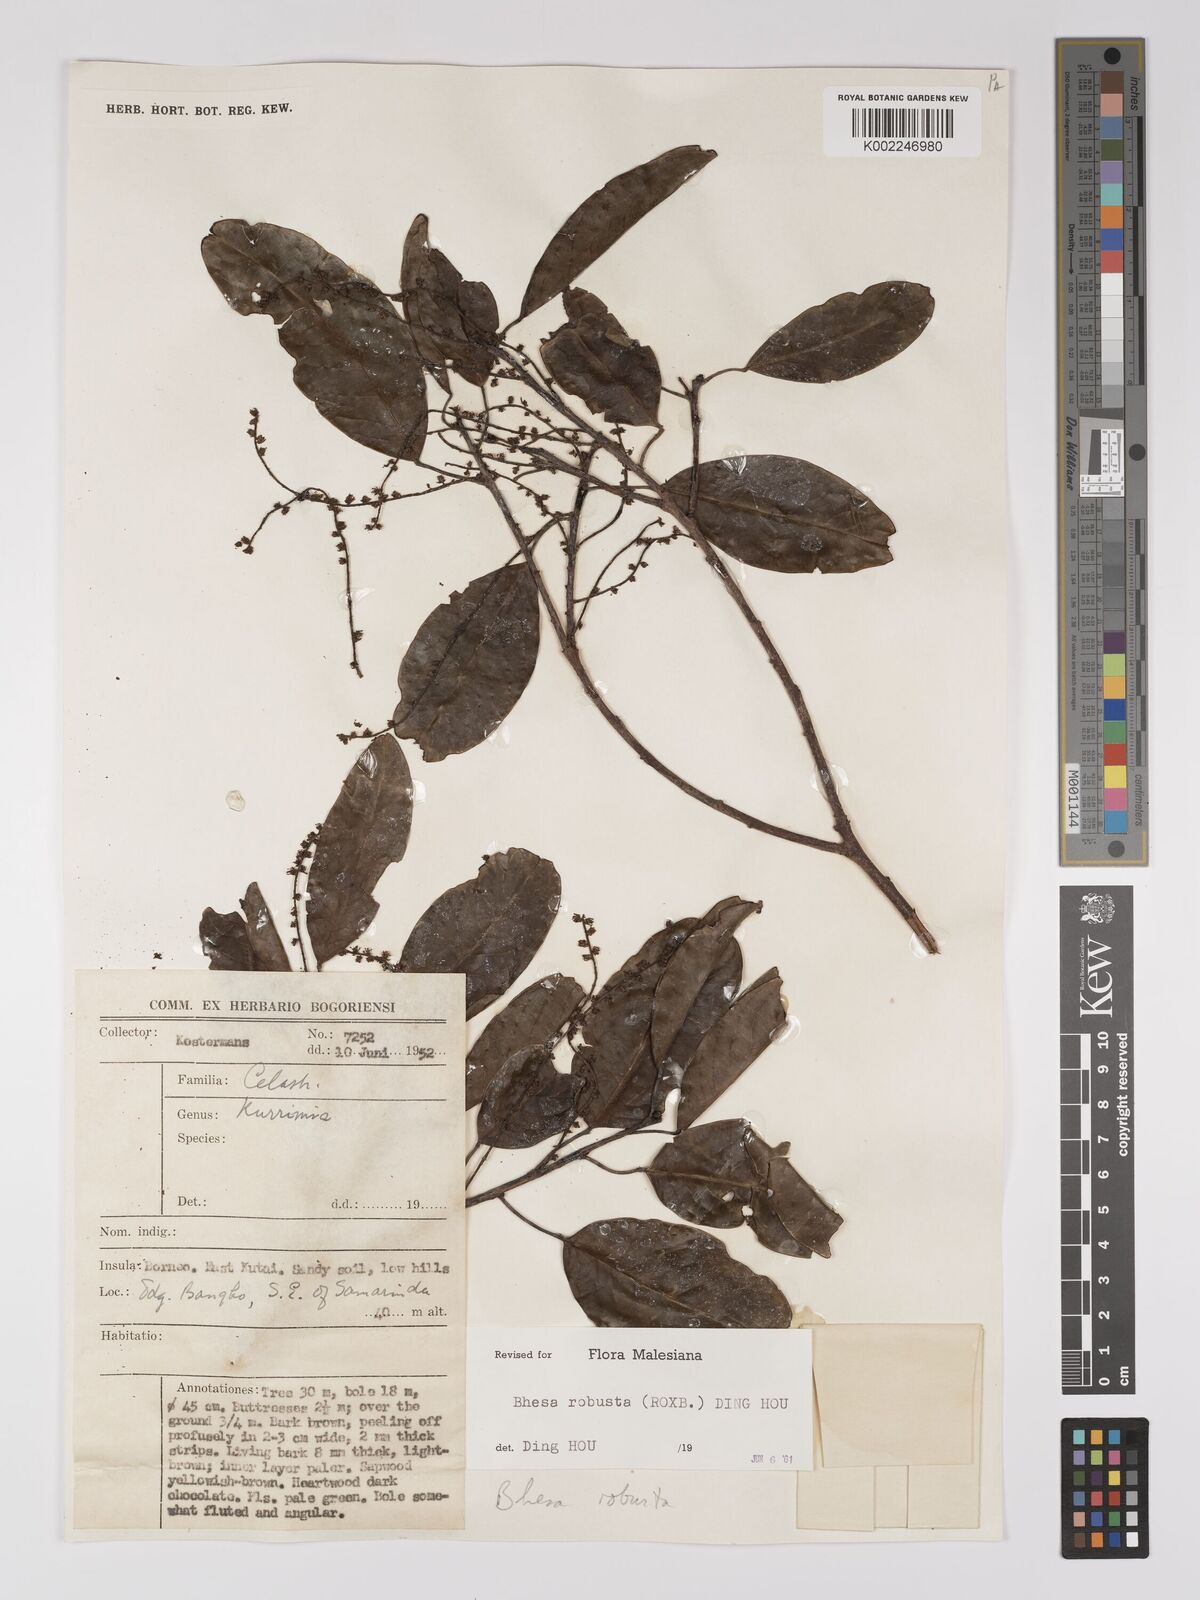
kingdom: Plantae
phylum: Tracheophyta
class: Magnoliopsida
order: Malpighiales
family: Centroplacaceae
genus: Bhesa
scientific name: Bhesa robusta
